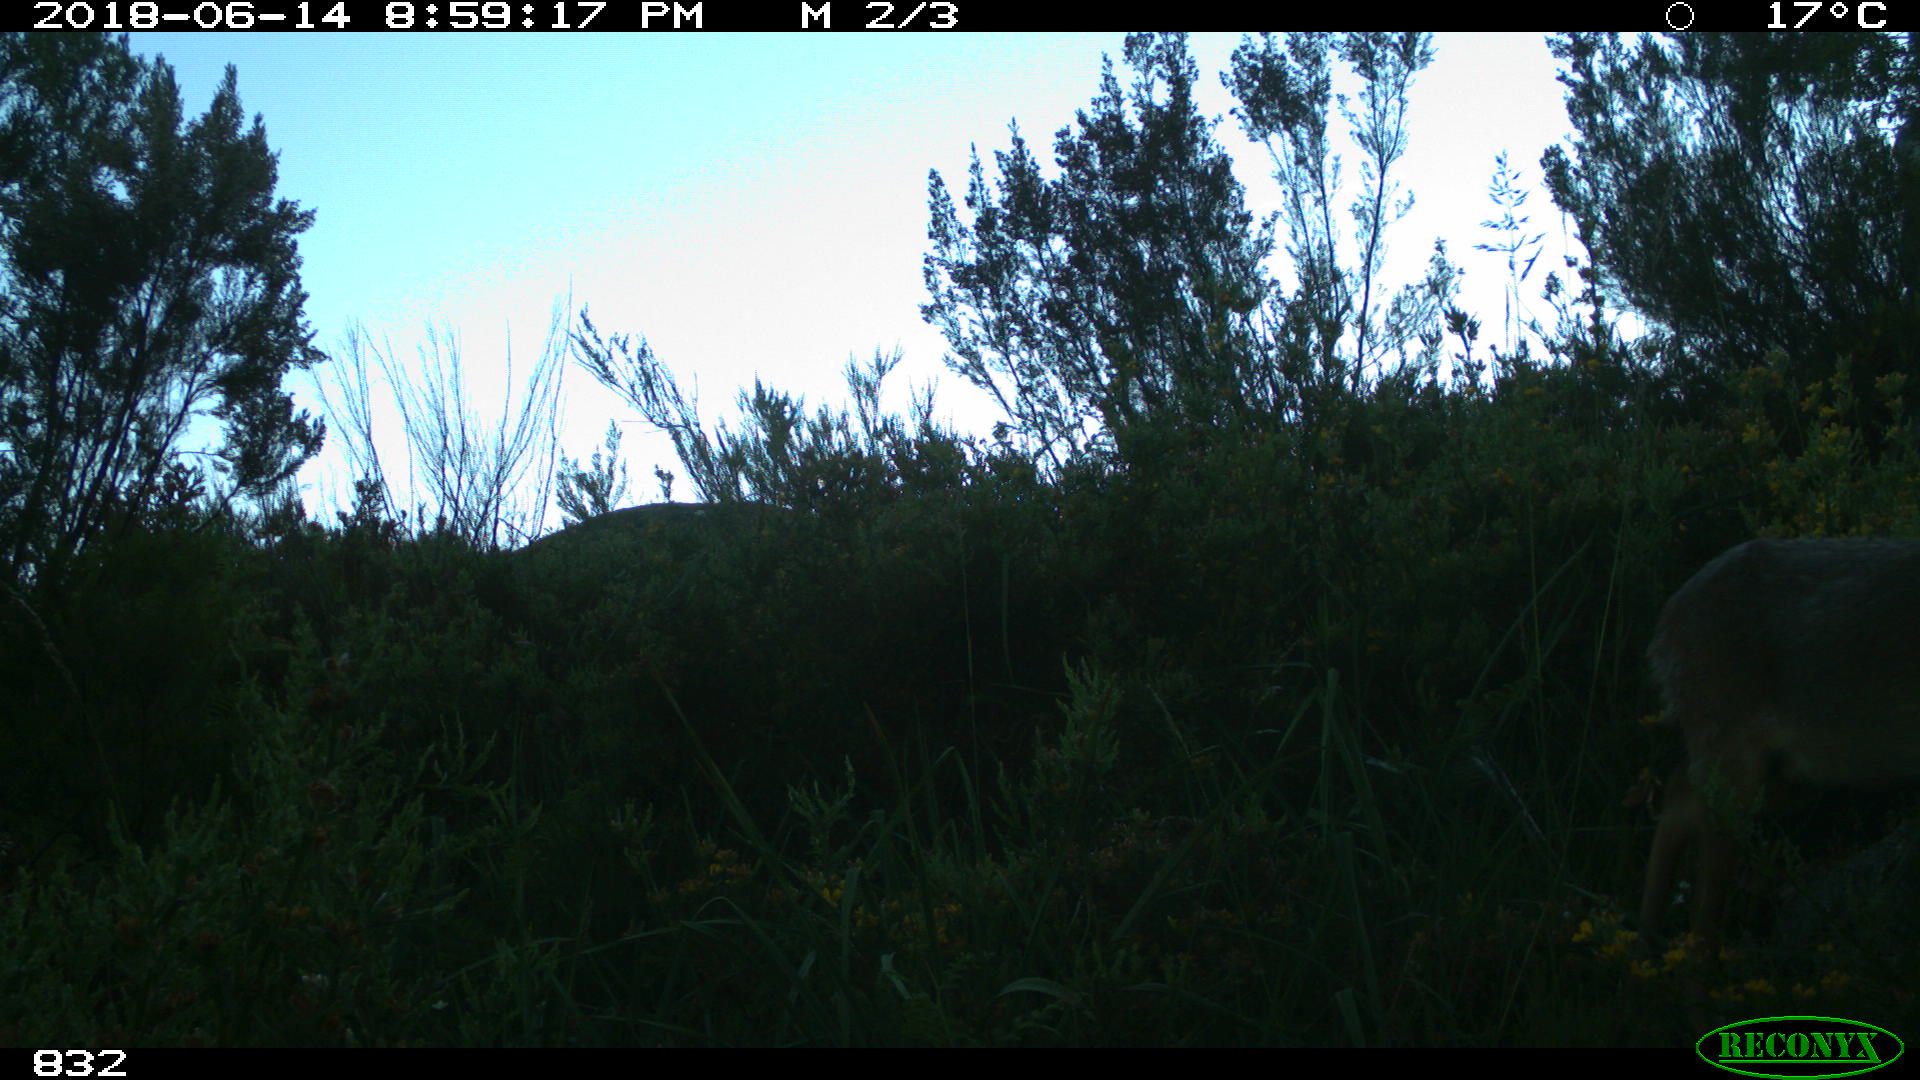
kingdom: Animalia
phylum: Chordata
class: Mammalia
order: Artiodactyla
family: Cervidae
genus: Capreolus
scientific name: Capreolus capreolus
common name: Western roe deer
